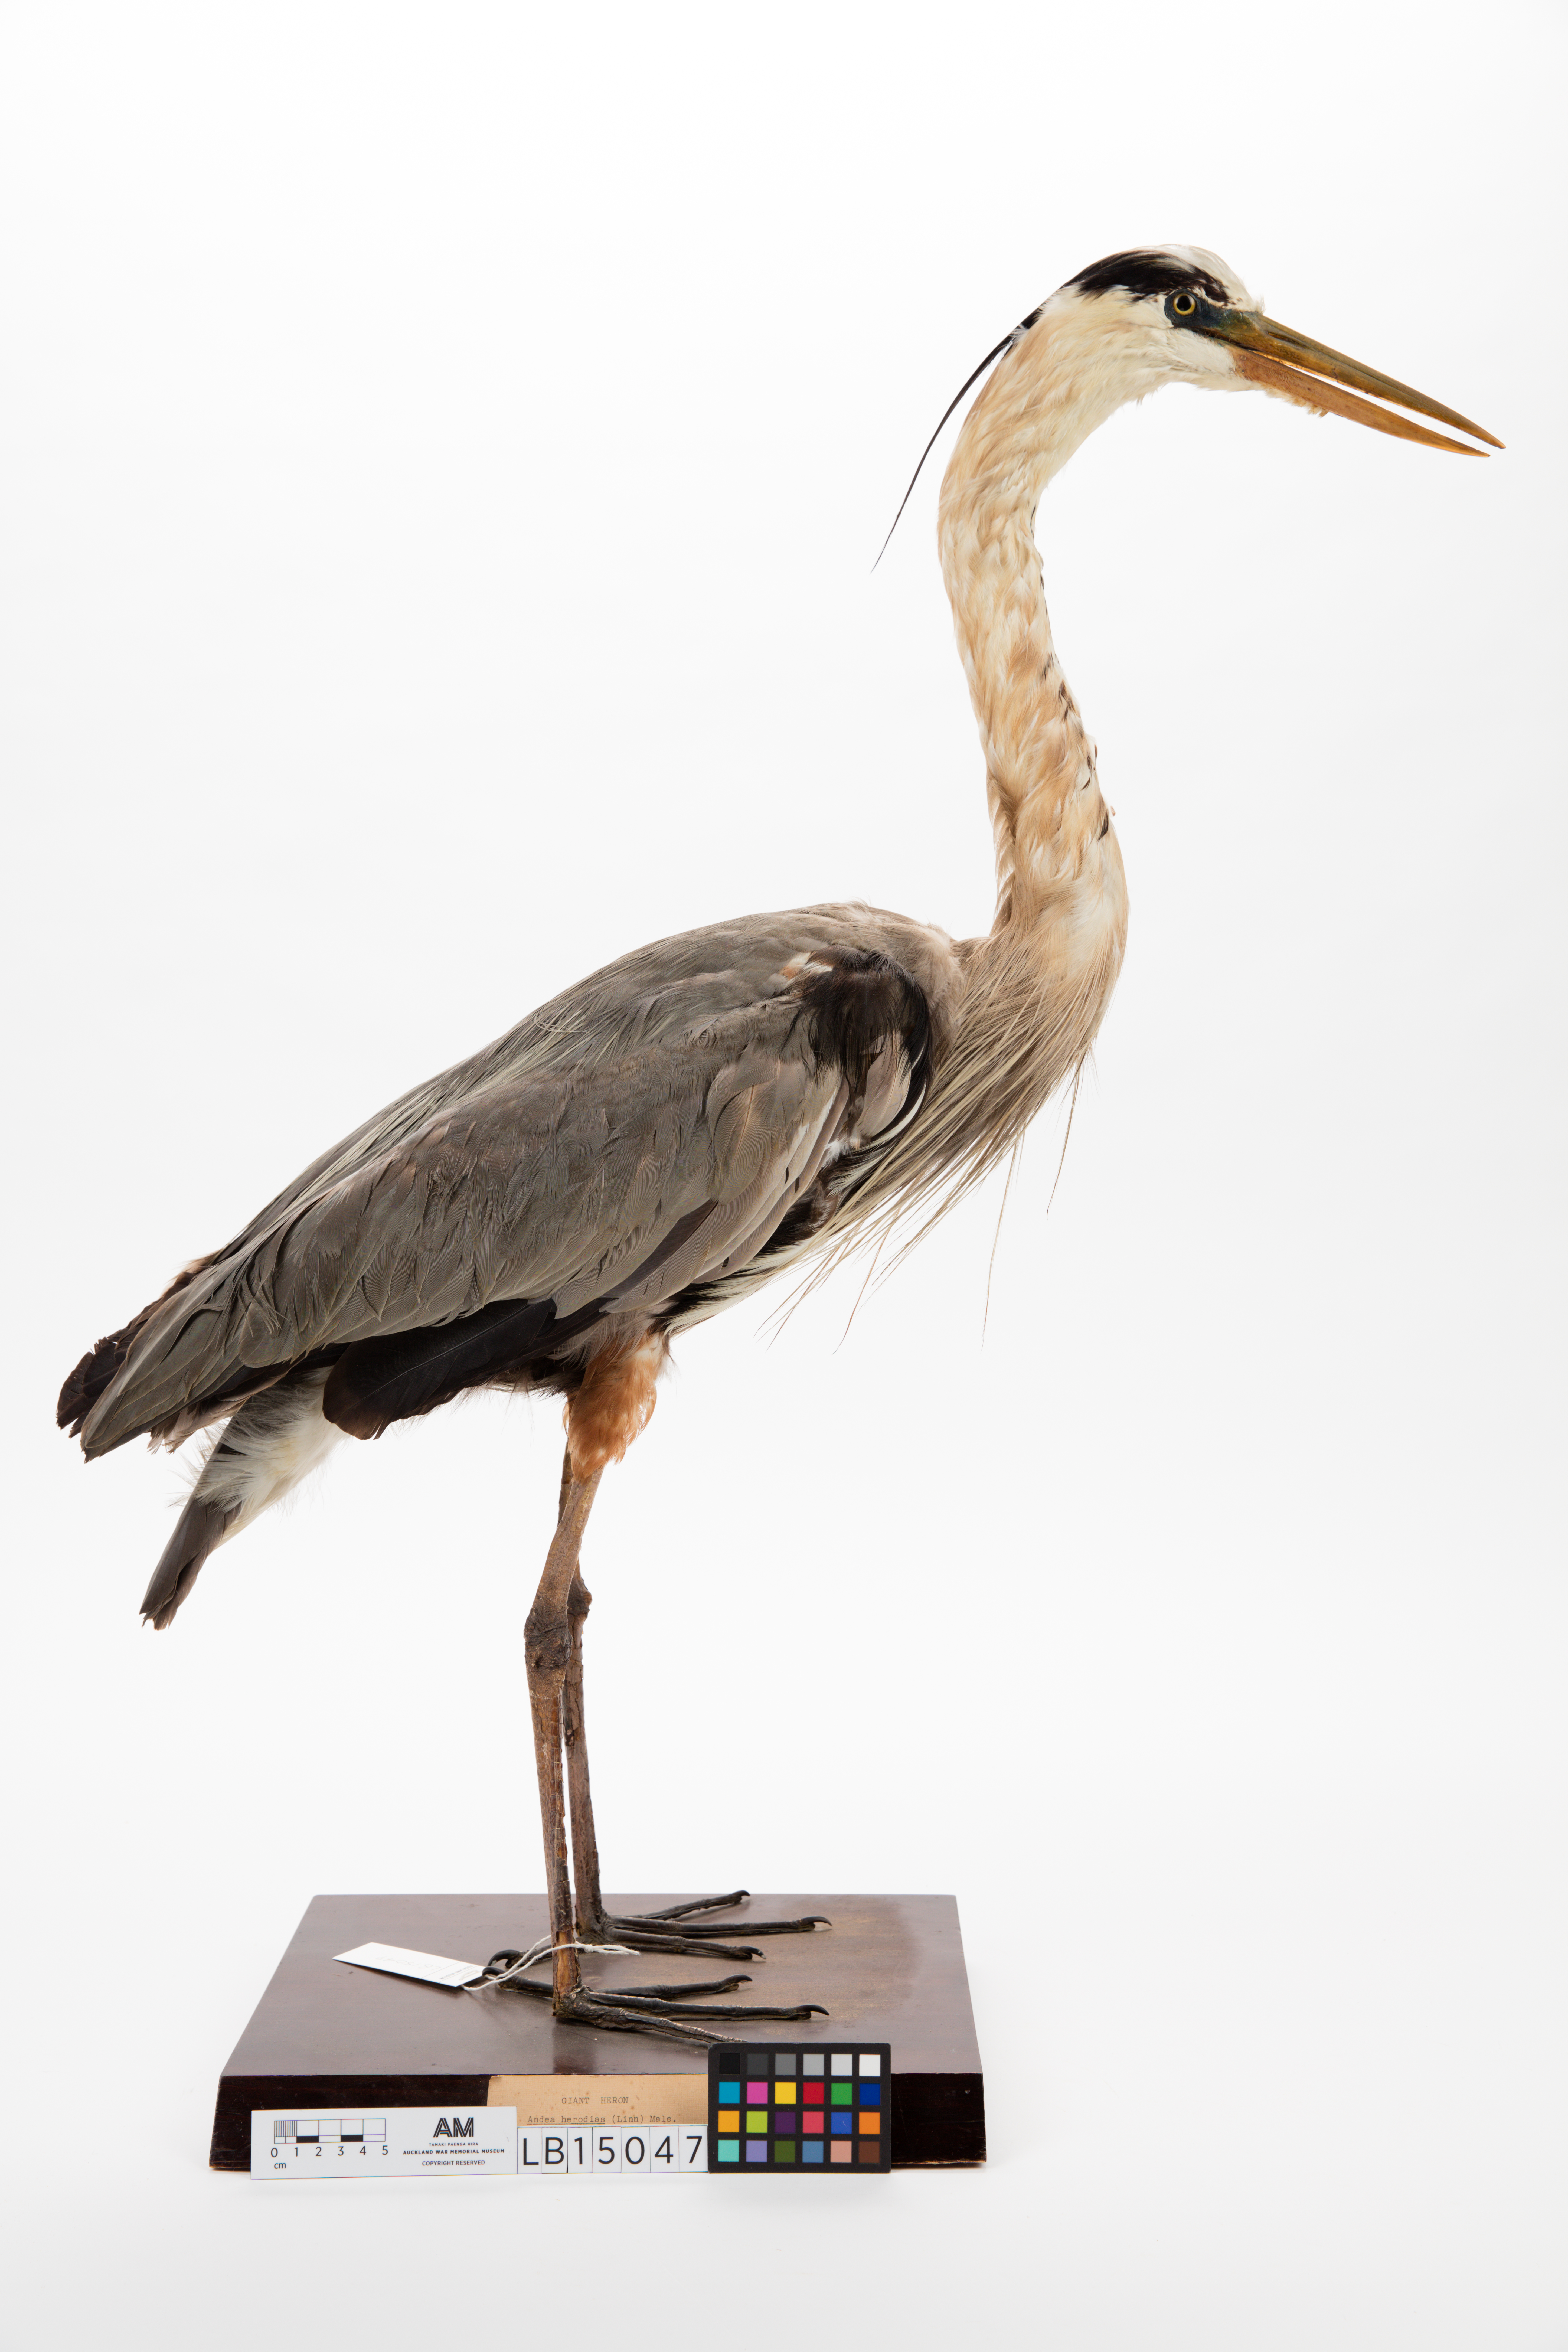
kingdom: Animalia
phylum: Chordata
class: Aves
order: Pelecaniformes
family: Ardeidae
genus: Ardea
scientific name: Ardea herodias
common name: Great blue heron
